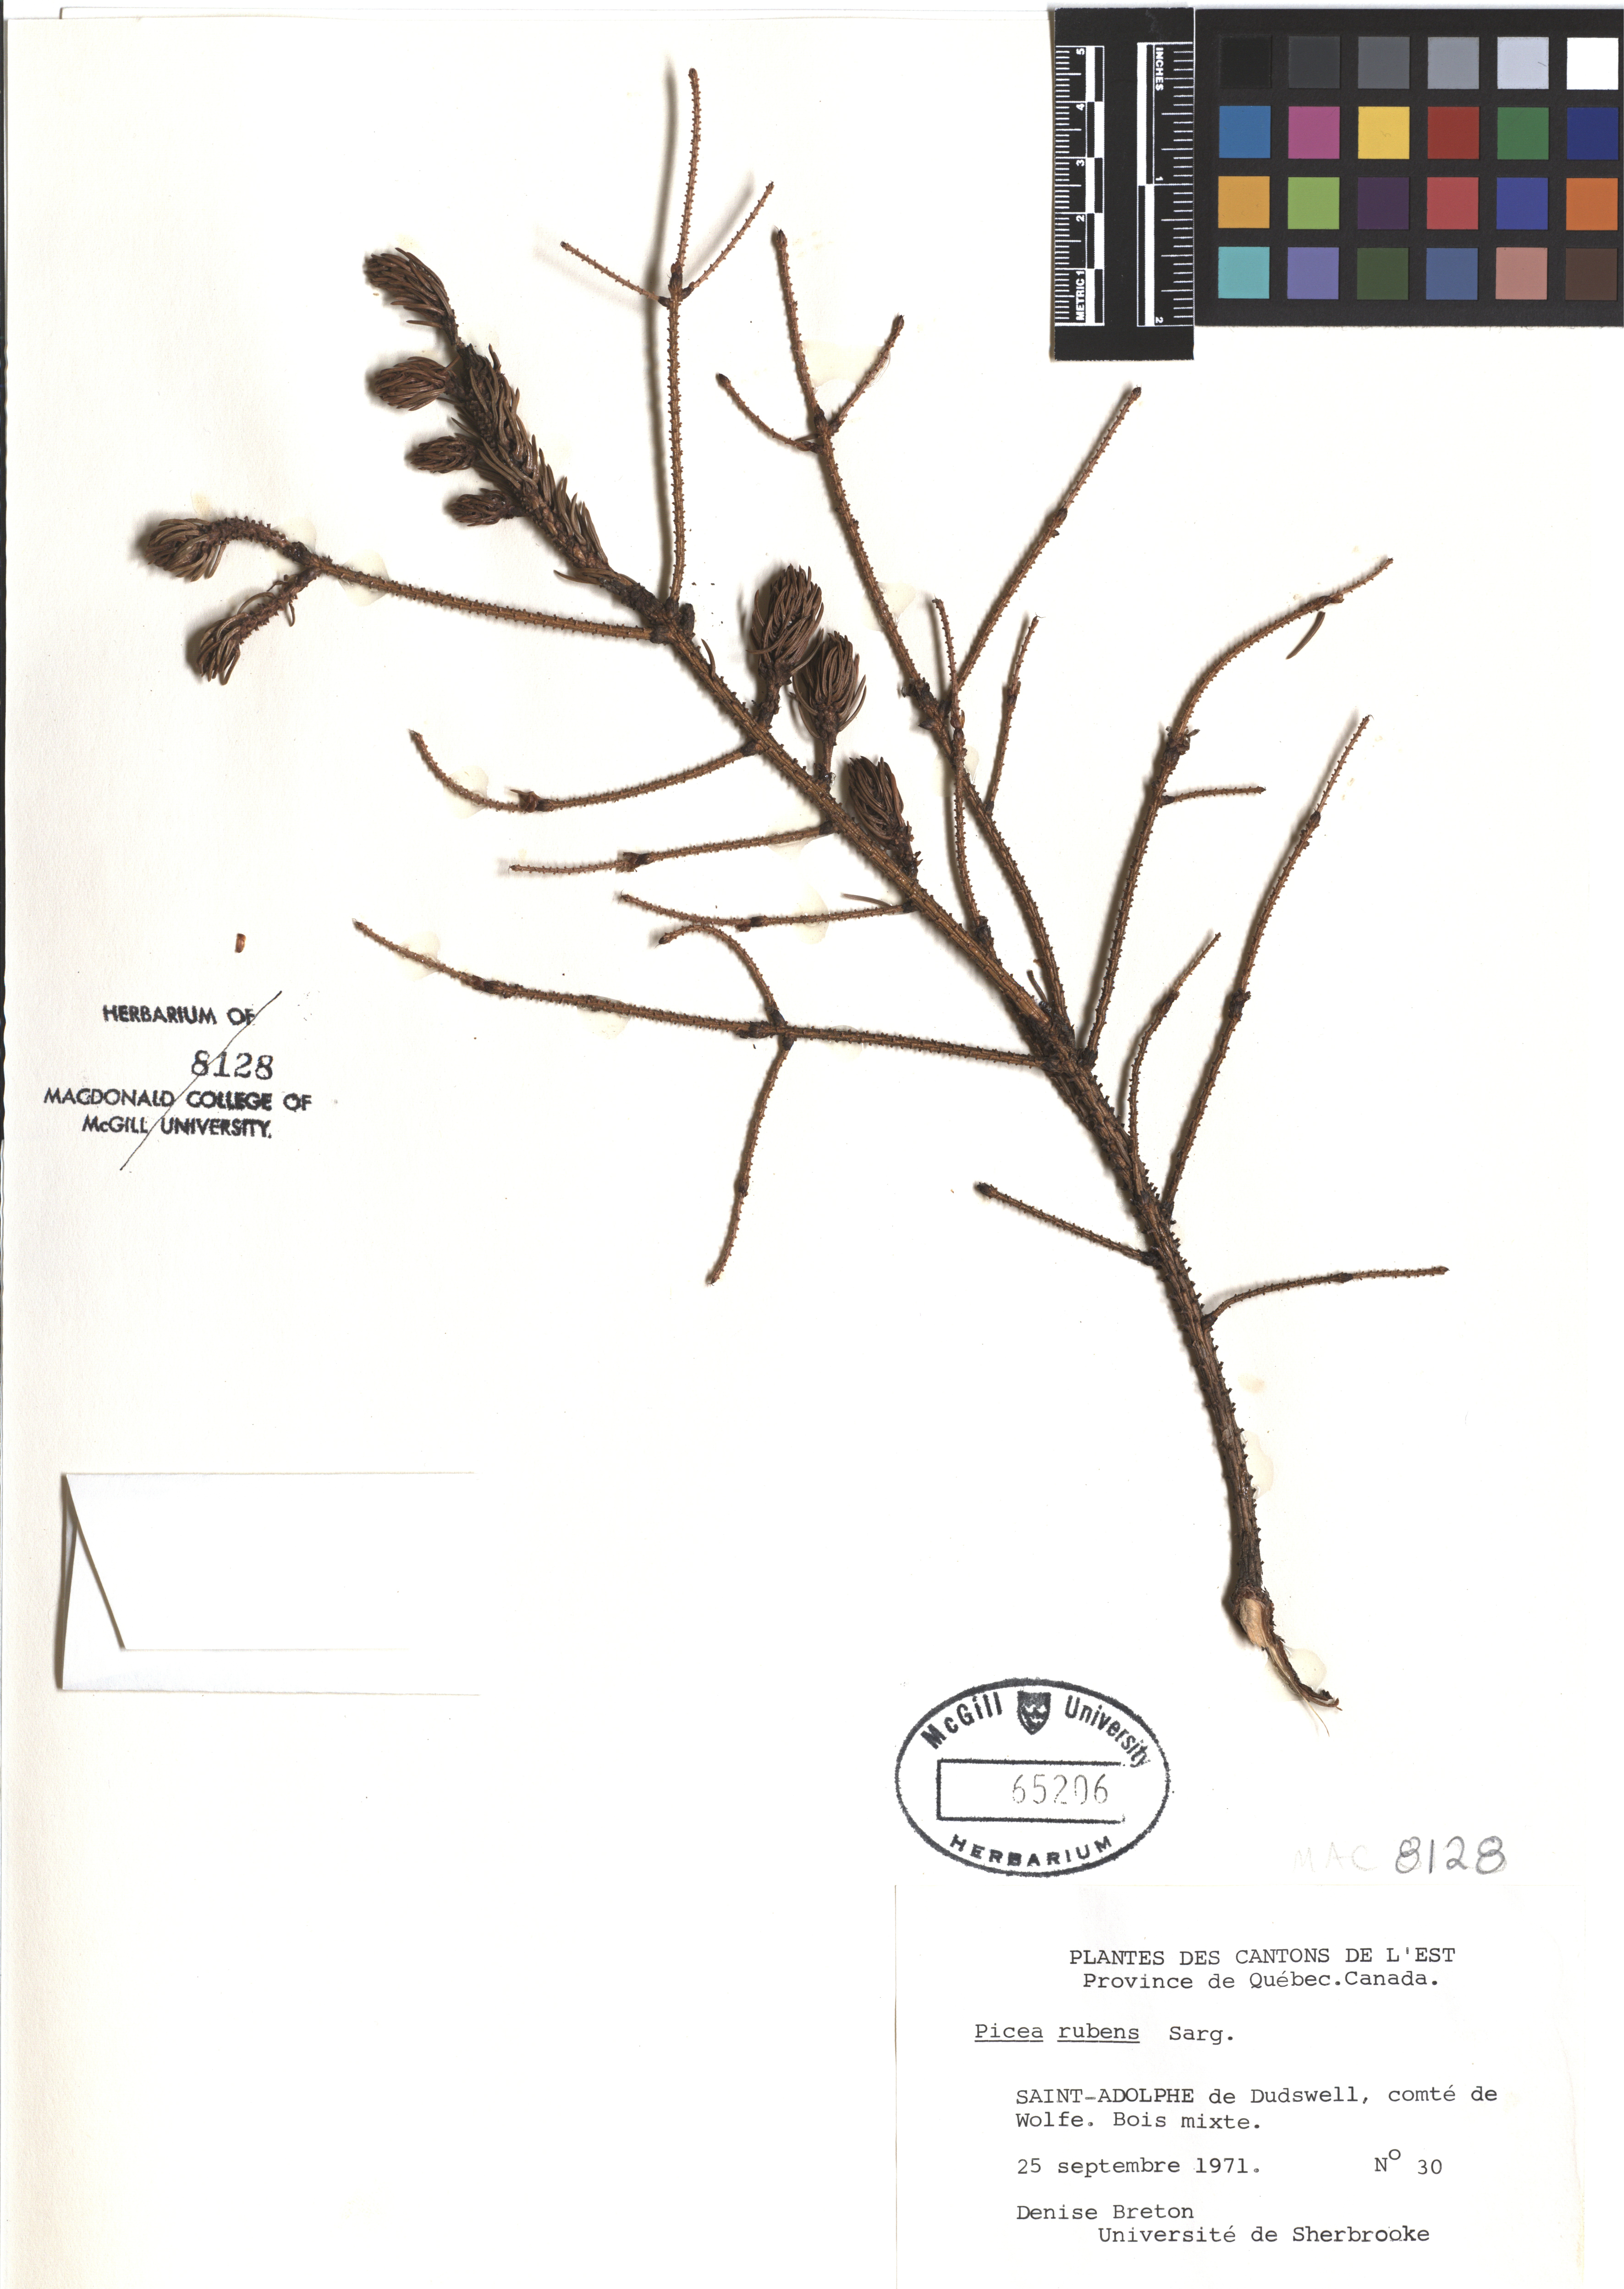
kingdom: Plantae
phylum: Tracheophyta
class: Pinopsida
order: Pinales
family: Pinaceae
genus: Picea
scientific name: Picea rubens
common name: Red spruce
